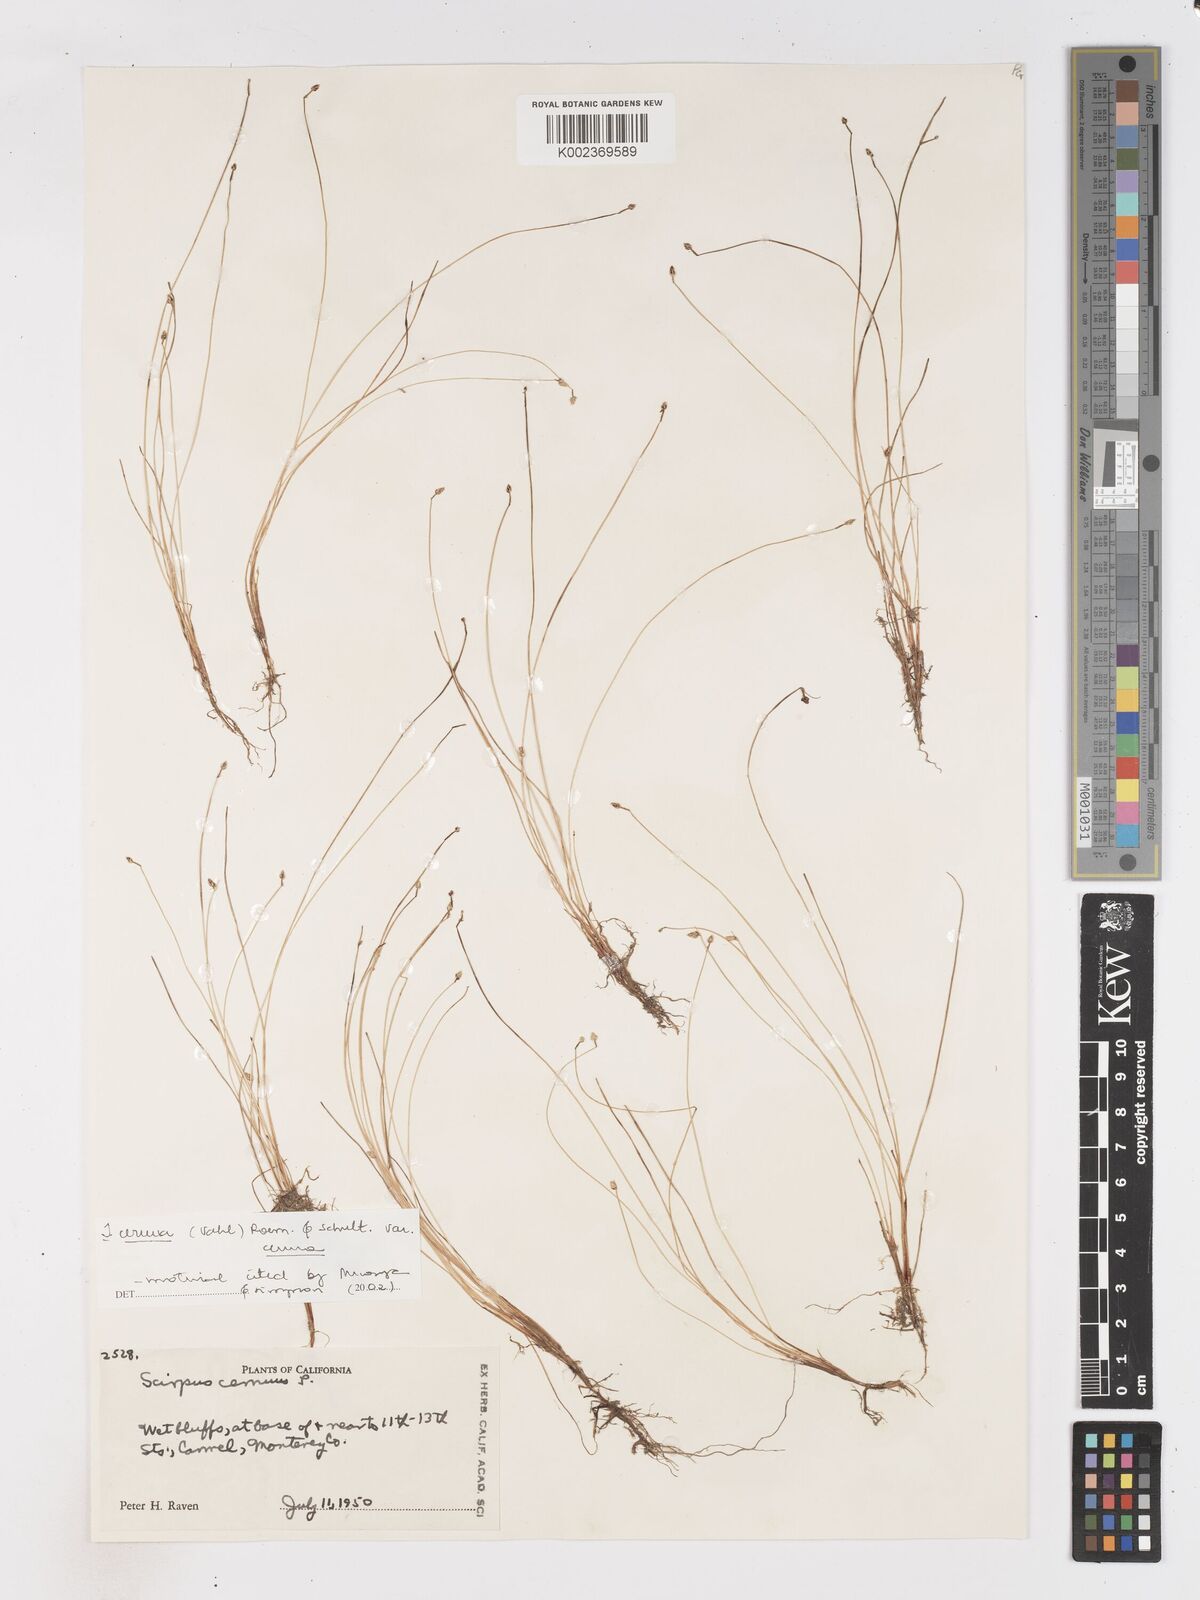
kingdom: Plantae
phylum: Tracheophyta
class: Liliopsida
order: Poales
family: Cyperaceae
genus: Isolepis
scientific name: Isolepis cernua
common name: Slender club-rush
